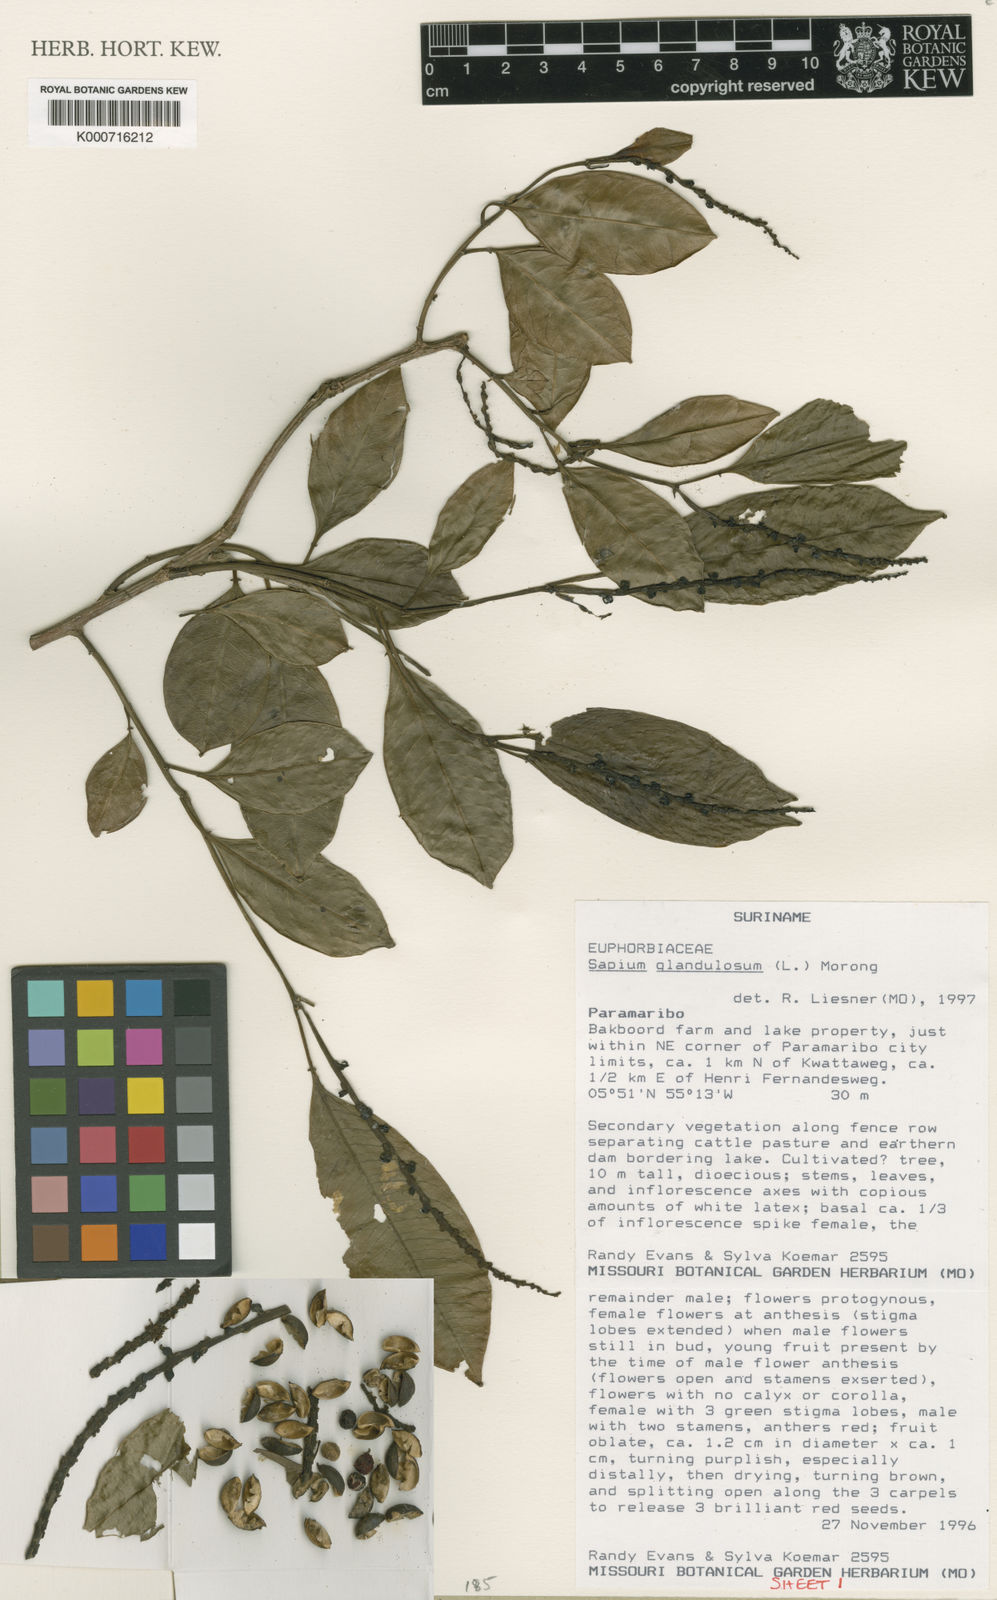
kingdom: Plantae
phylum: Tracheophyta
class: Magnoliopsida
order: Malpighiales
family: Euphorbiaceae
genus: Sapium
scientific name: Sapium glandulosum
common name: Milktree
